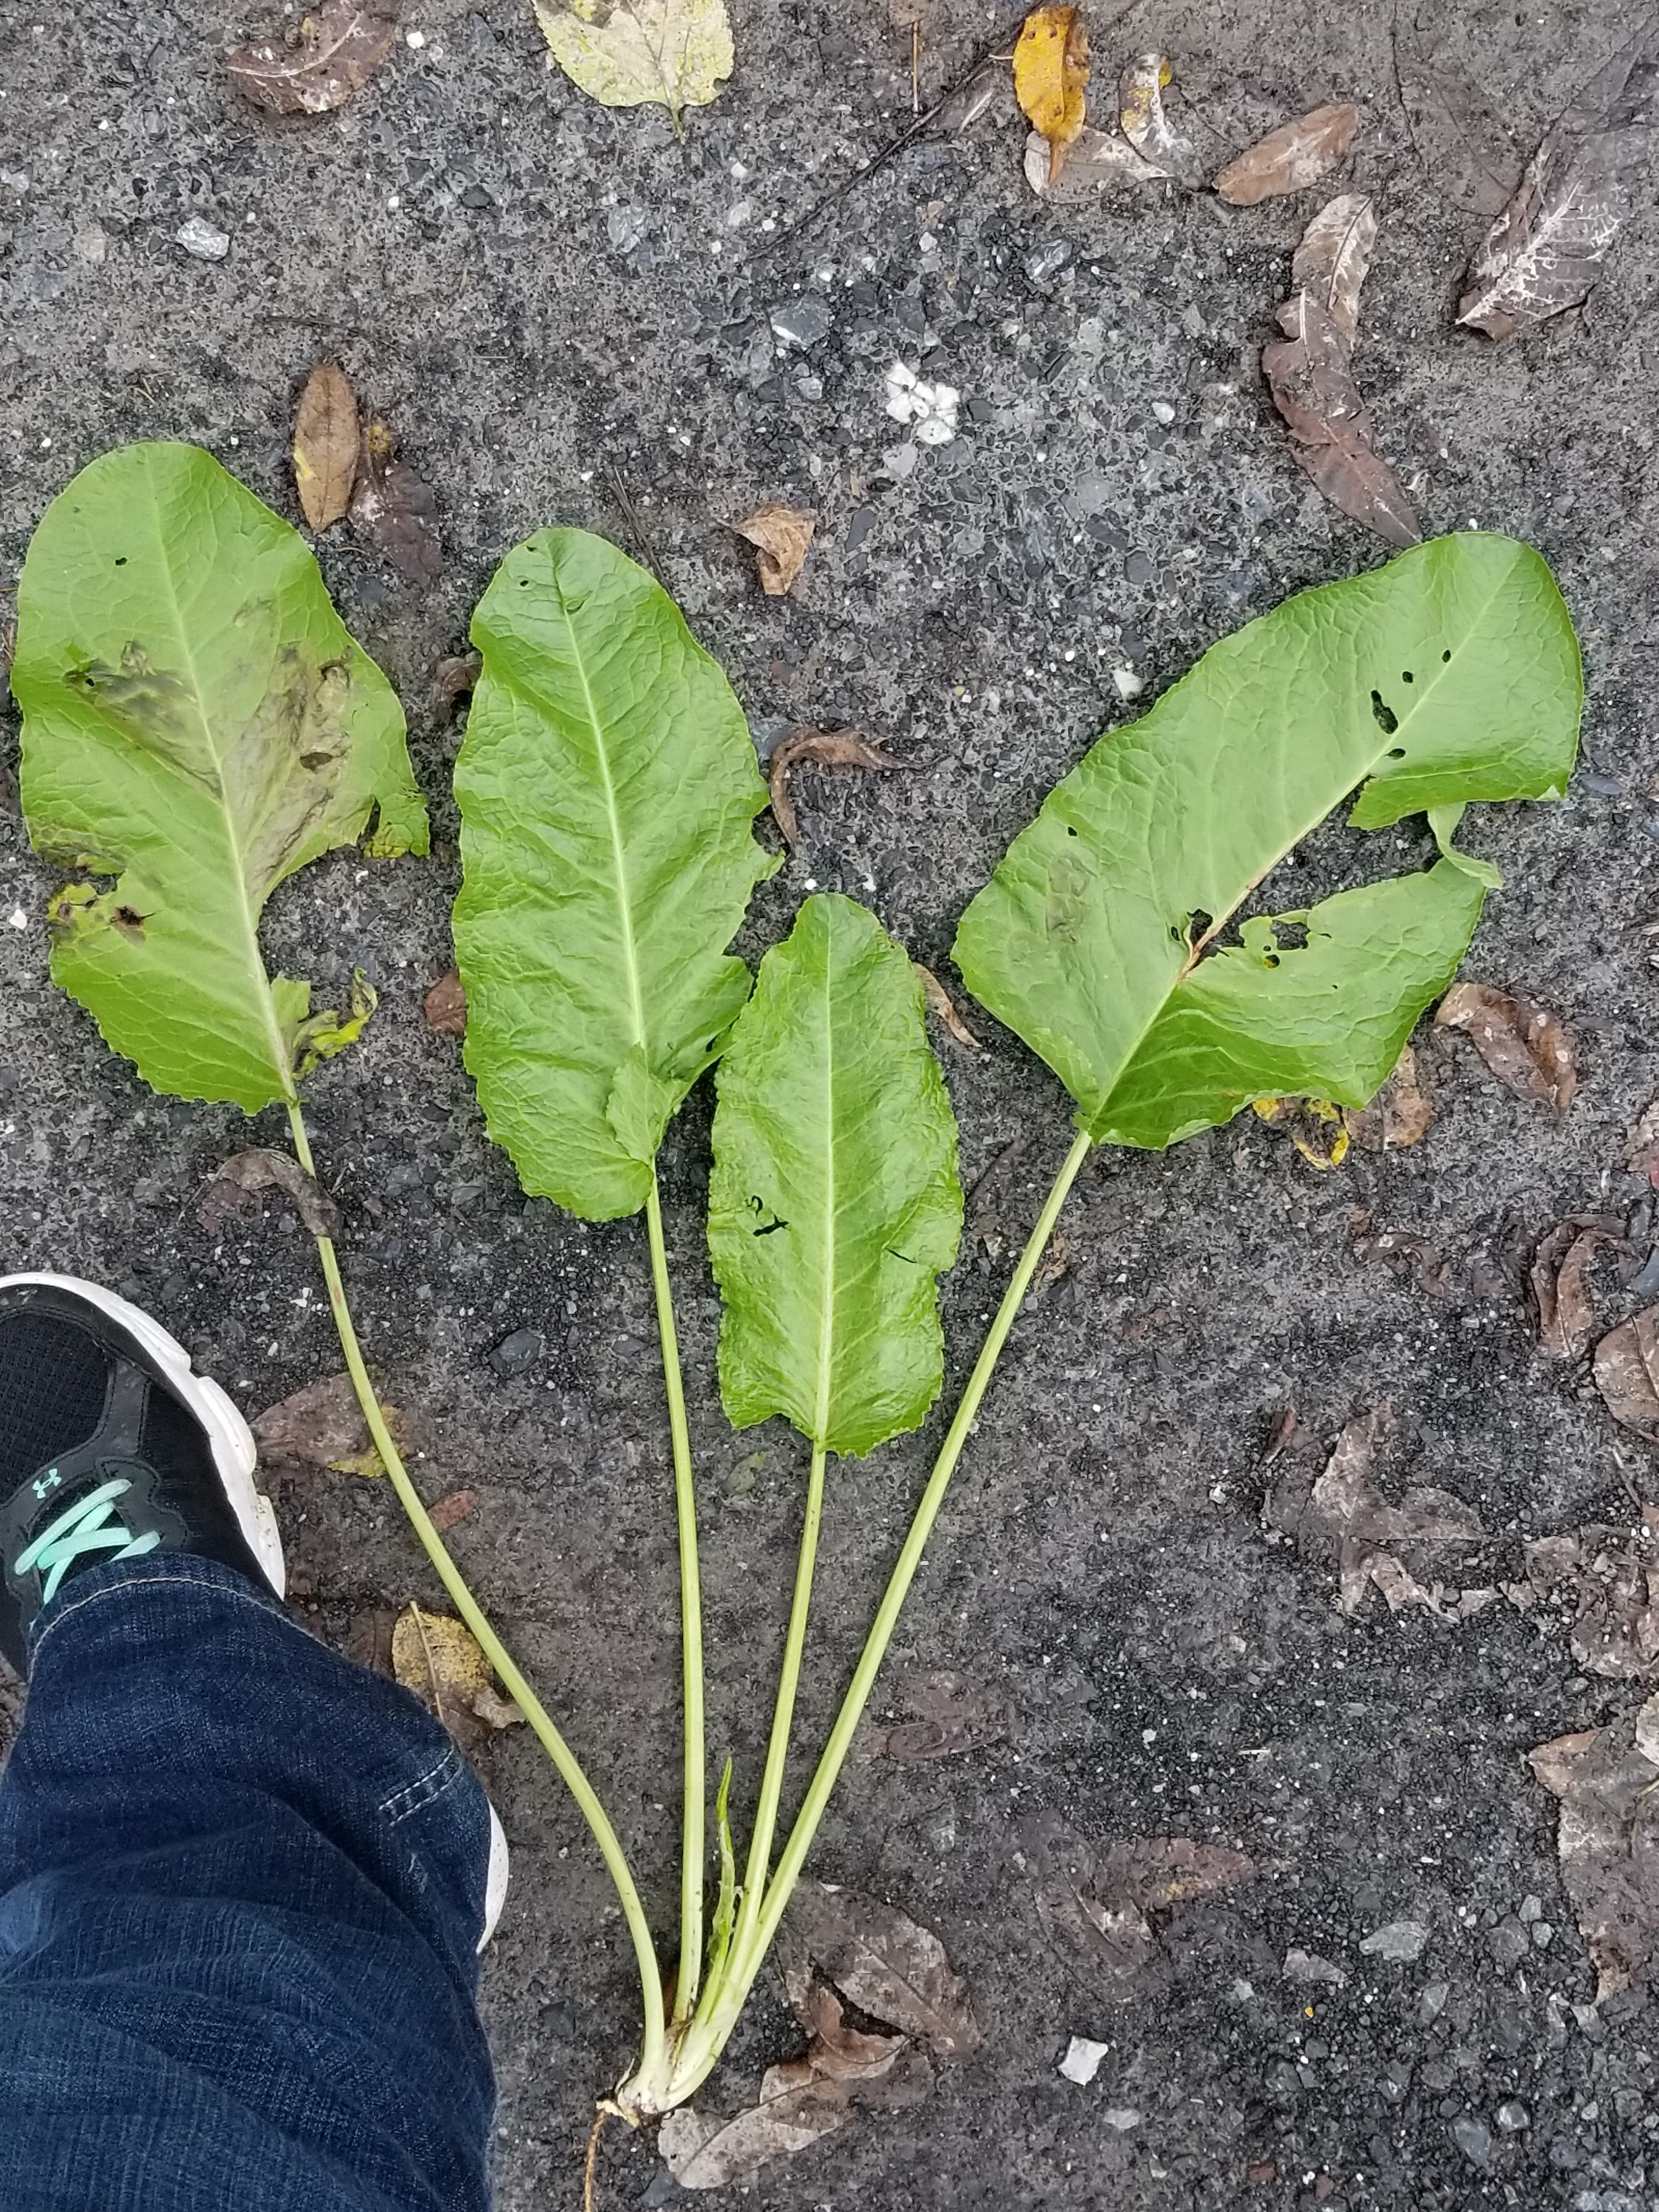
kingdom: Plantae
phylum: Tracheophyta
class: Magnoliopsida
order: Caryophyllales
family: Polygonaceae
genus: Rumex
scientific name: Rumex obtusifolius
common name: Dock
